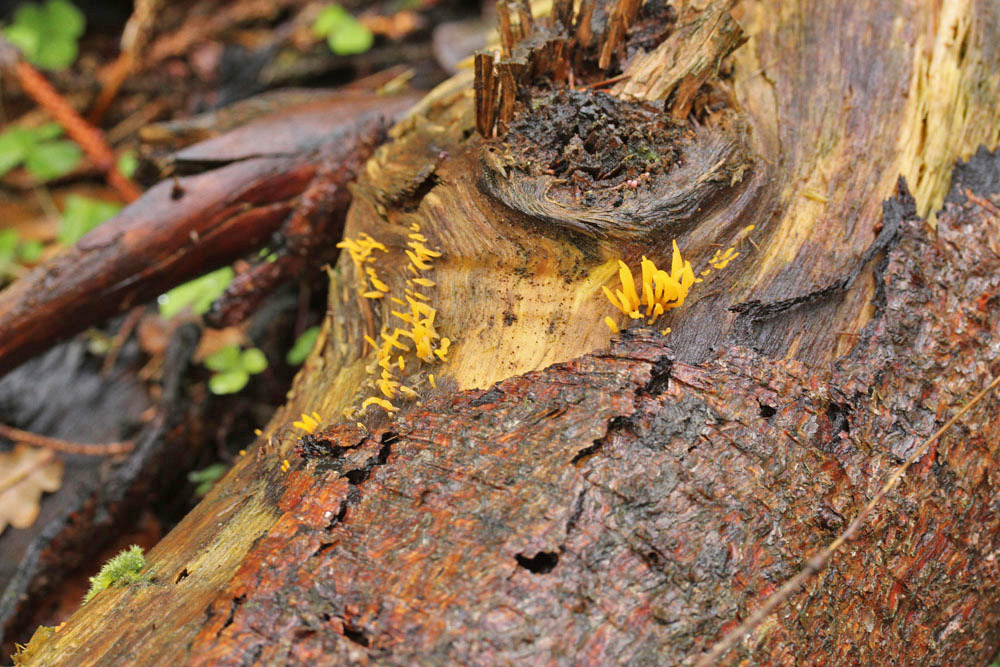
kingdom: Fungi
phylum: Basidiomycota
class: Dacrymycetes
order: Dacrymycetales
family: Dacrymycetaceae
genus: Calocera
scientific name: Calocera cornea
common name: liden guldgaffel
